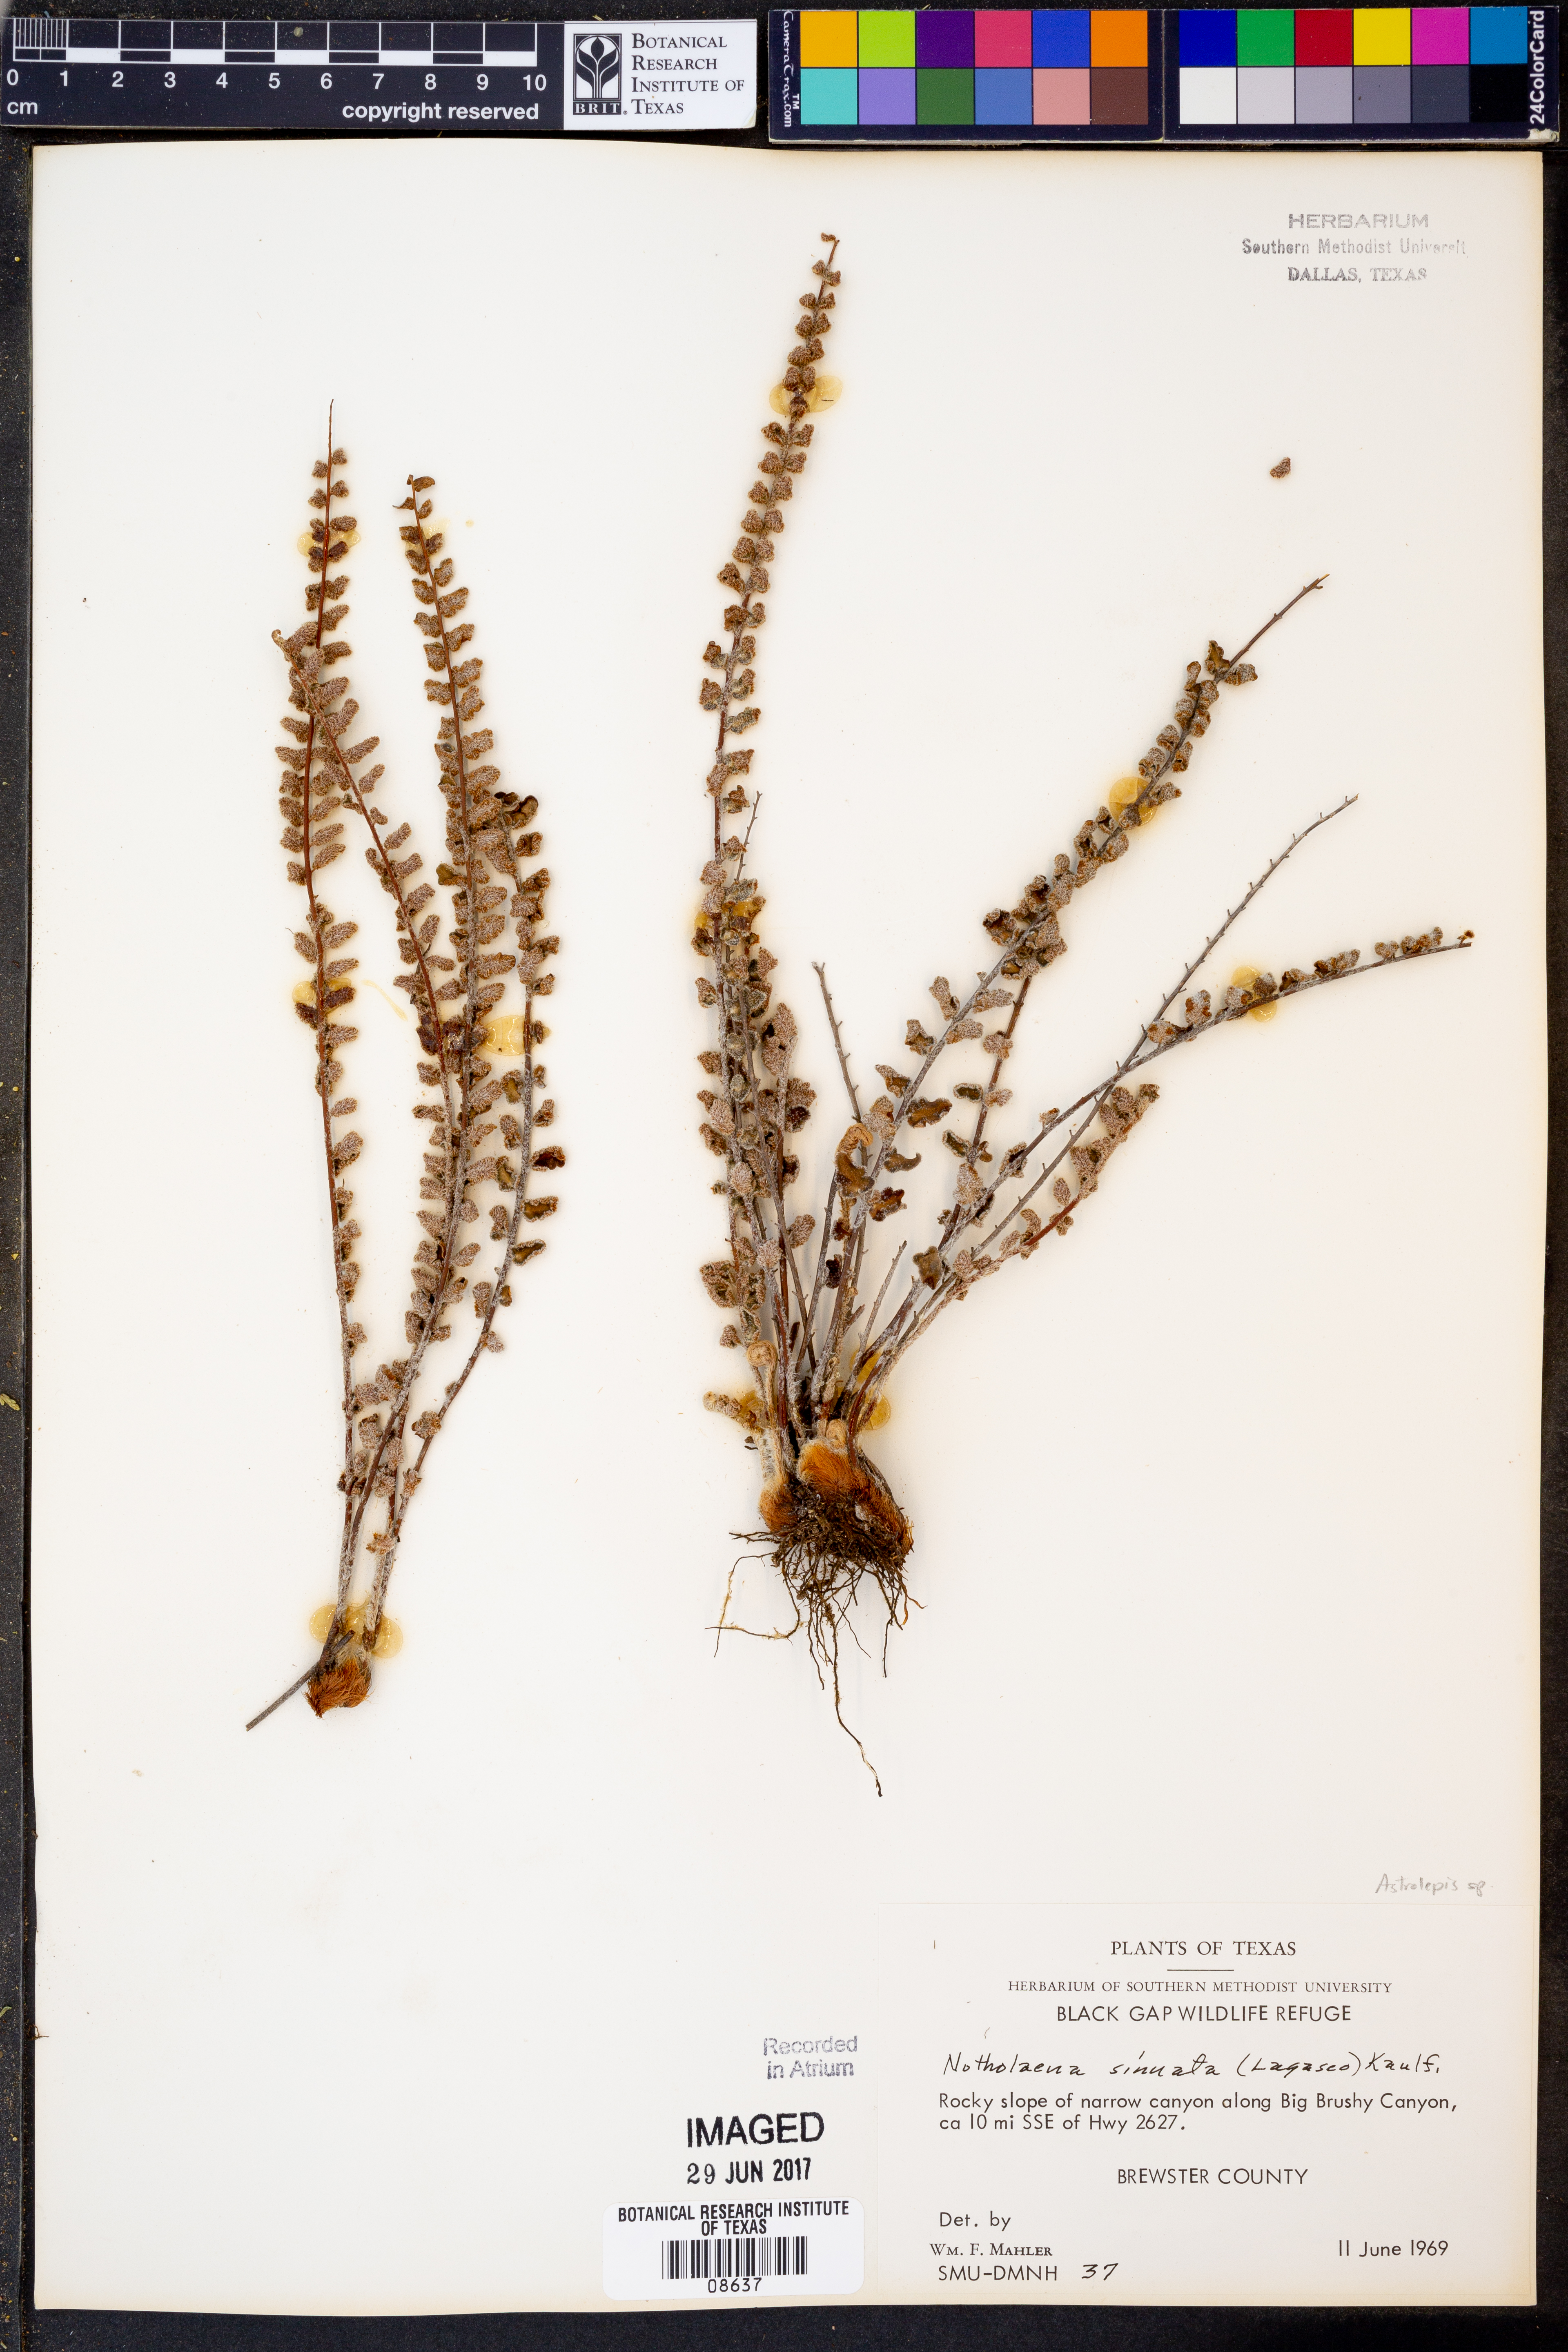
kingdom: Plantae
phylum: Tracheophyta
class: Polypodiopsida
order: Polypodiales
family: Pteridaceae
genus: Astrolepis
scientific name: Astrolepis sinuata
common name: Wavy scaly cloakfern
